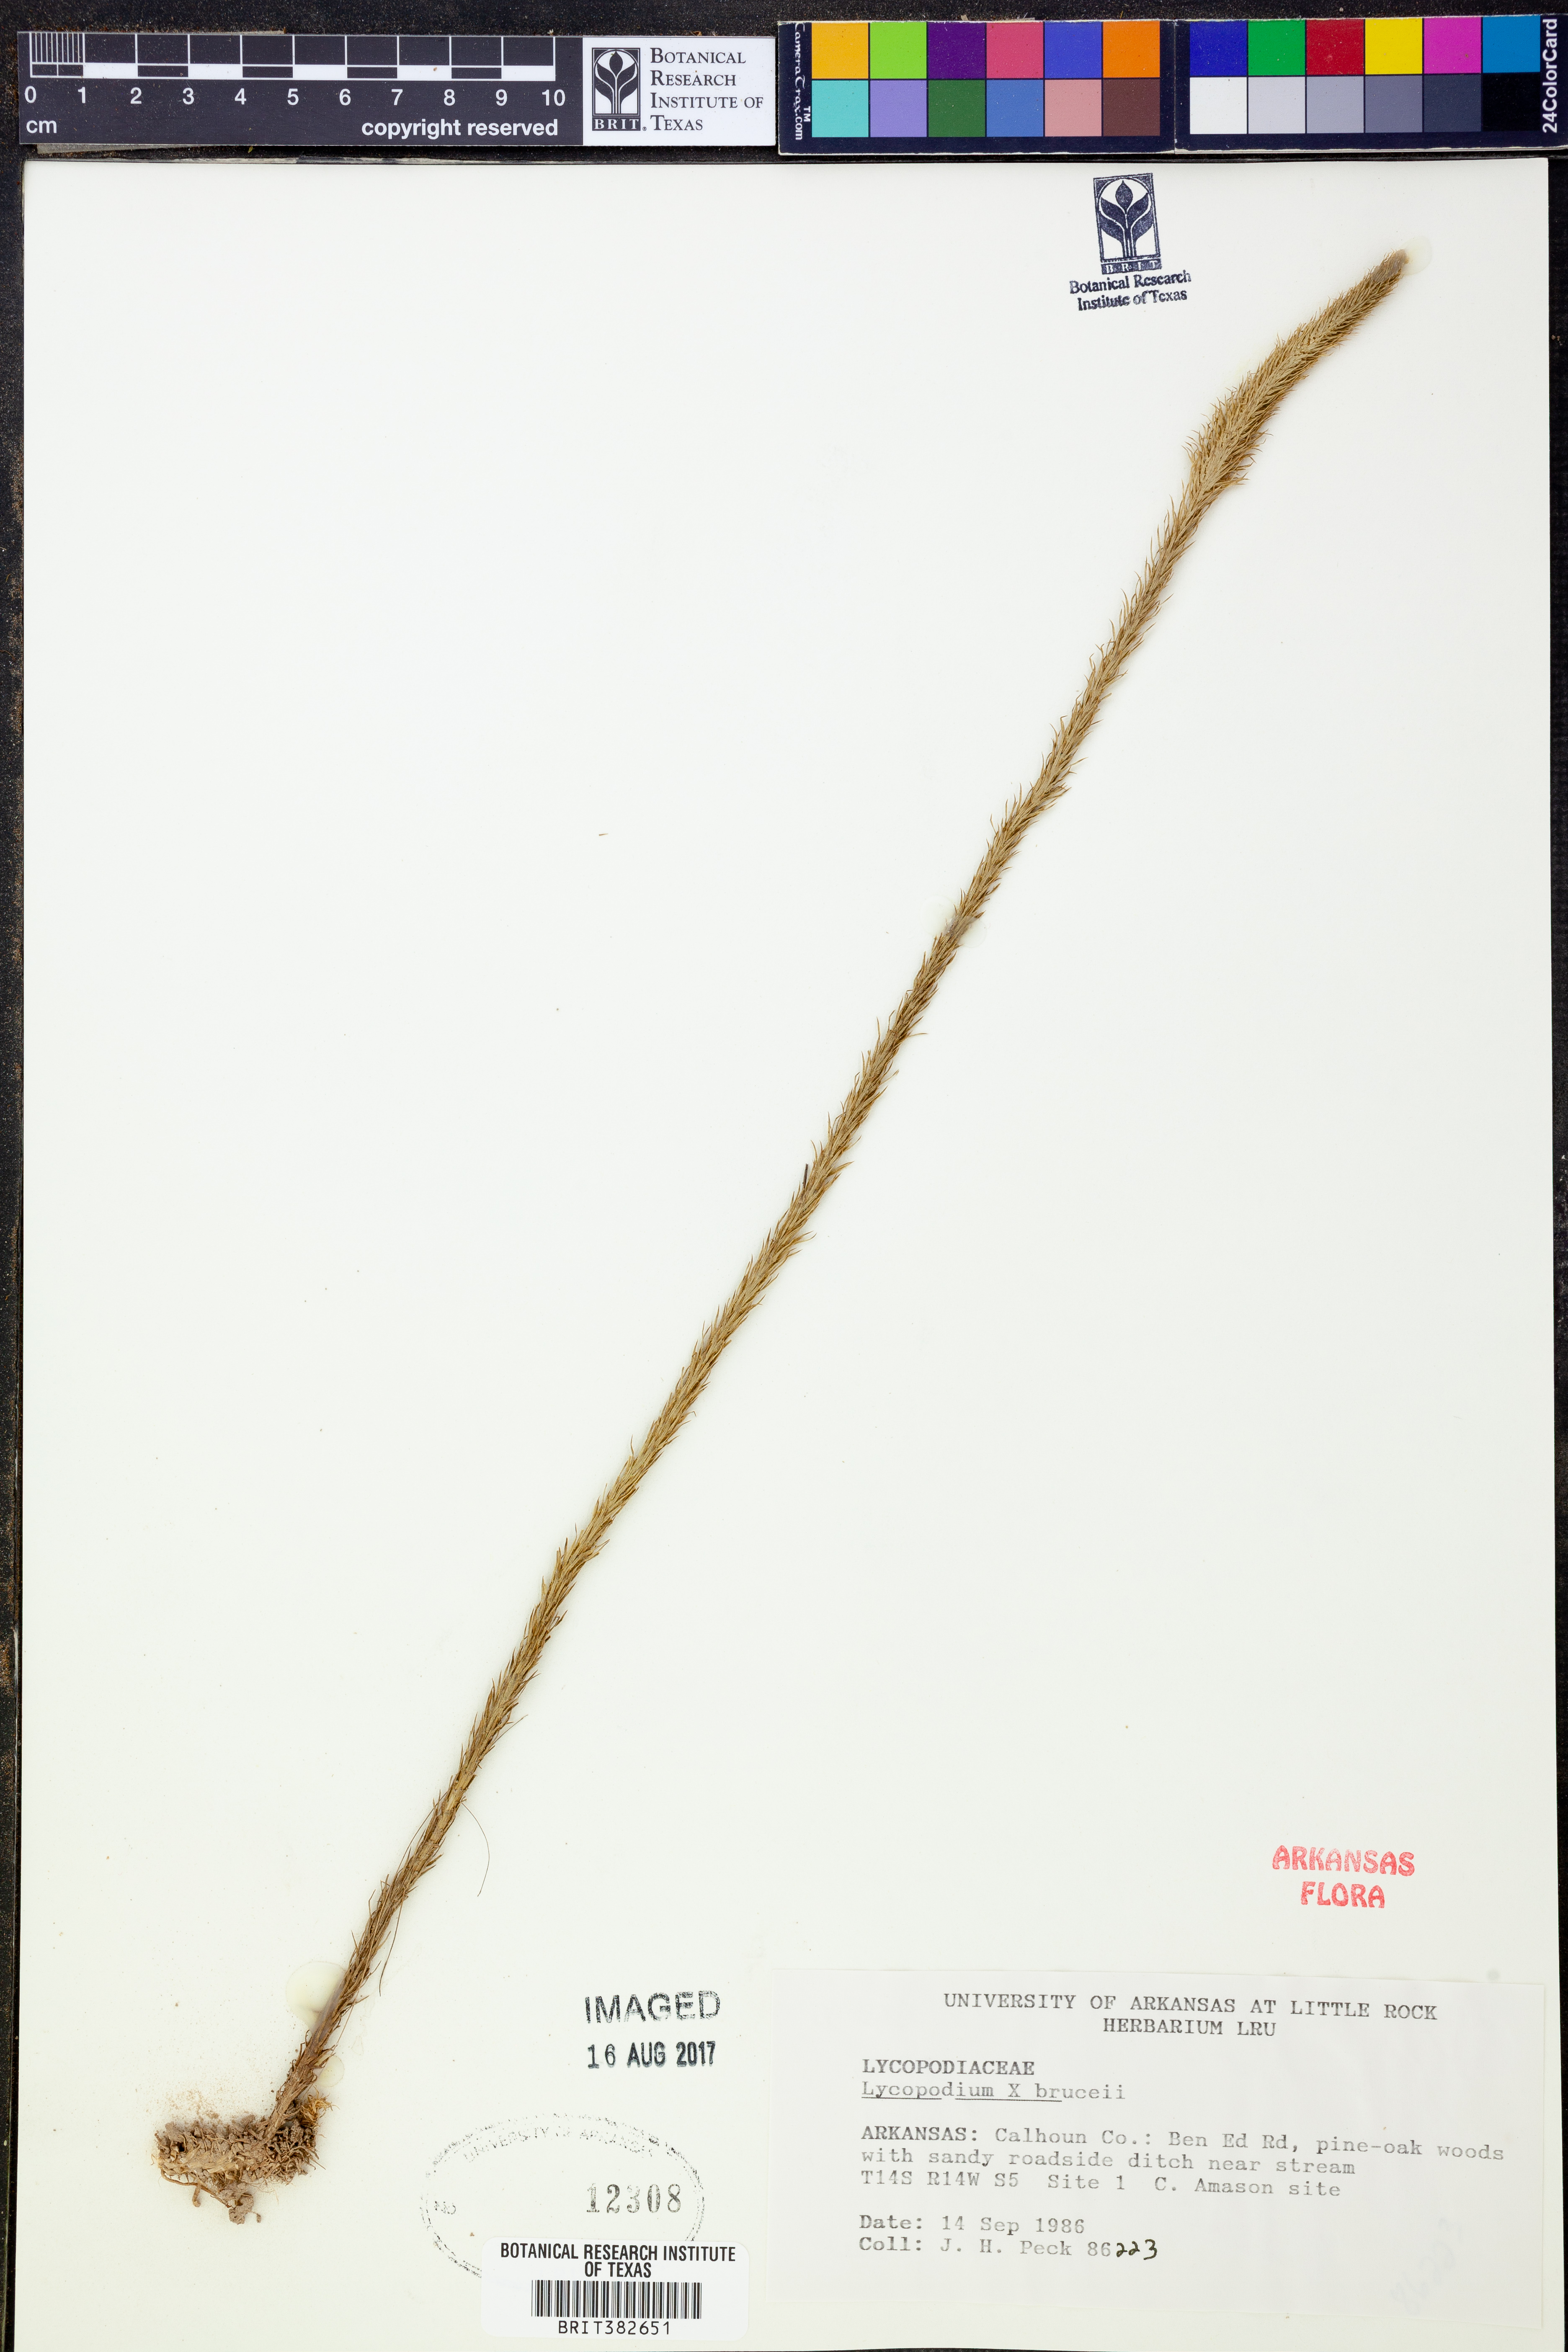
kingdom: Plantae
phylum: Tracheophyta
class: Lycopodiopsida
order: Lycopodiales
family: Lycopodiaceae
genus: Lycopodiella
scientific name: Lycopodiella brucei
